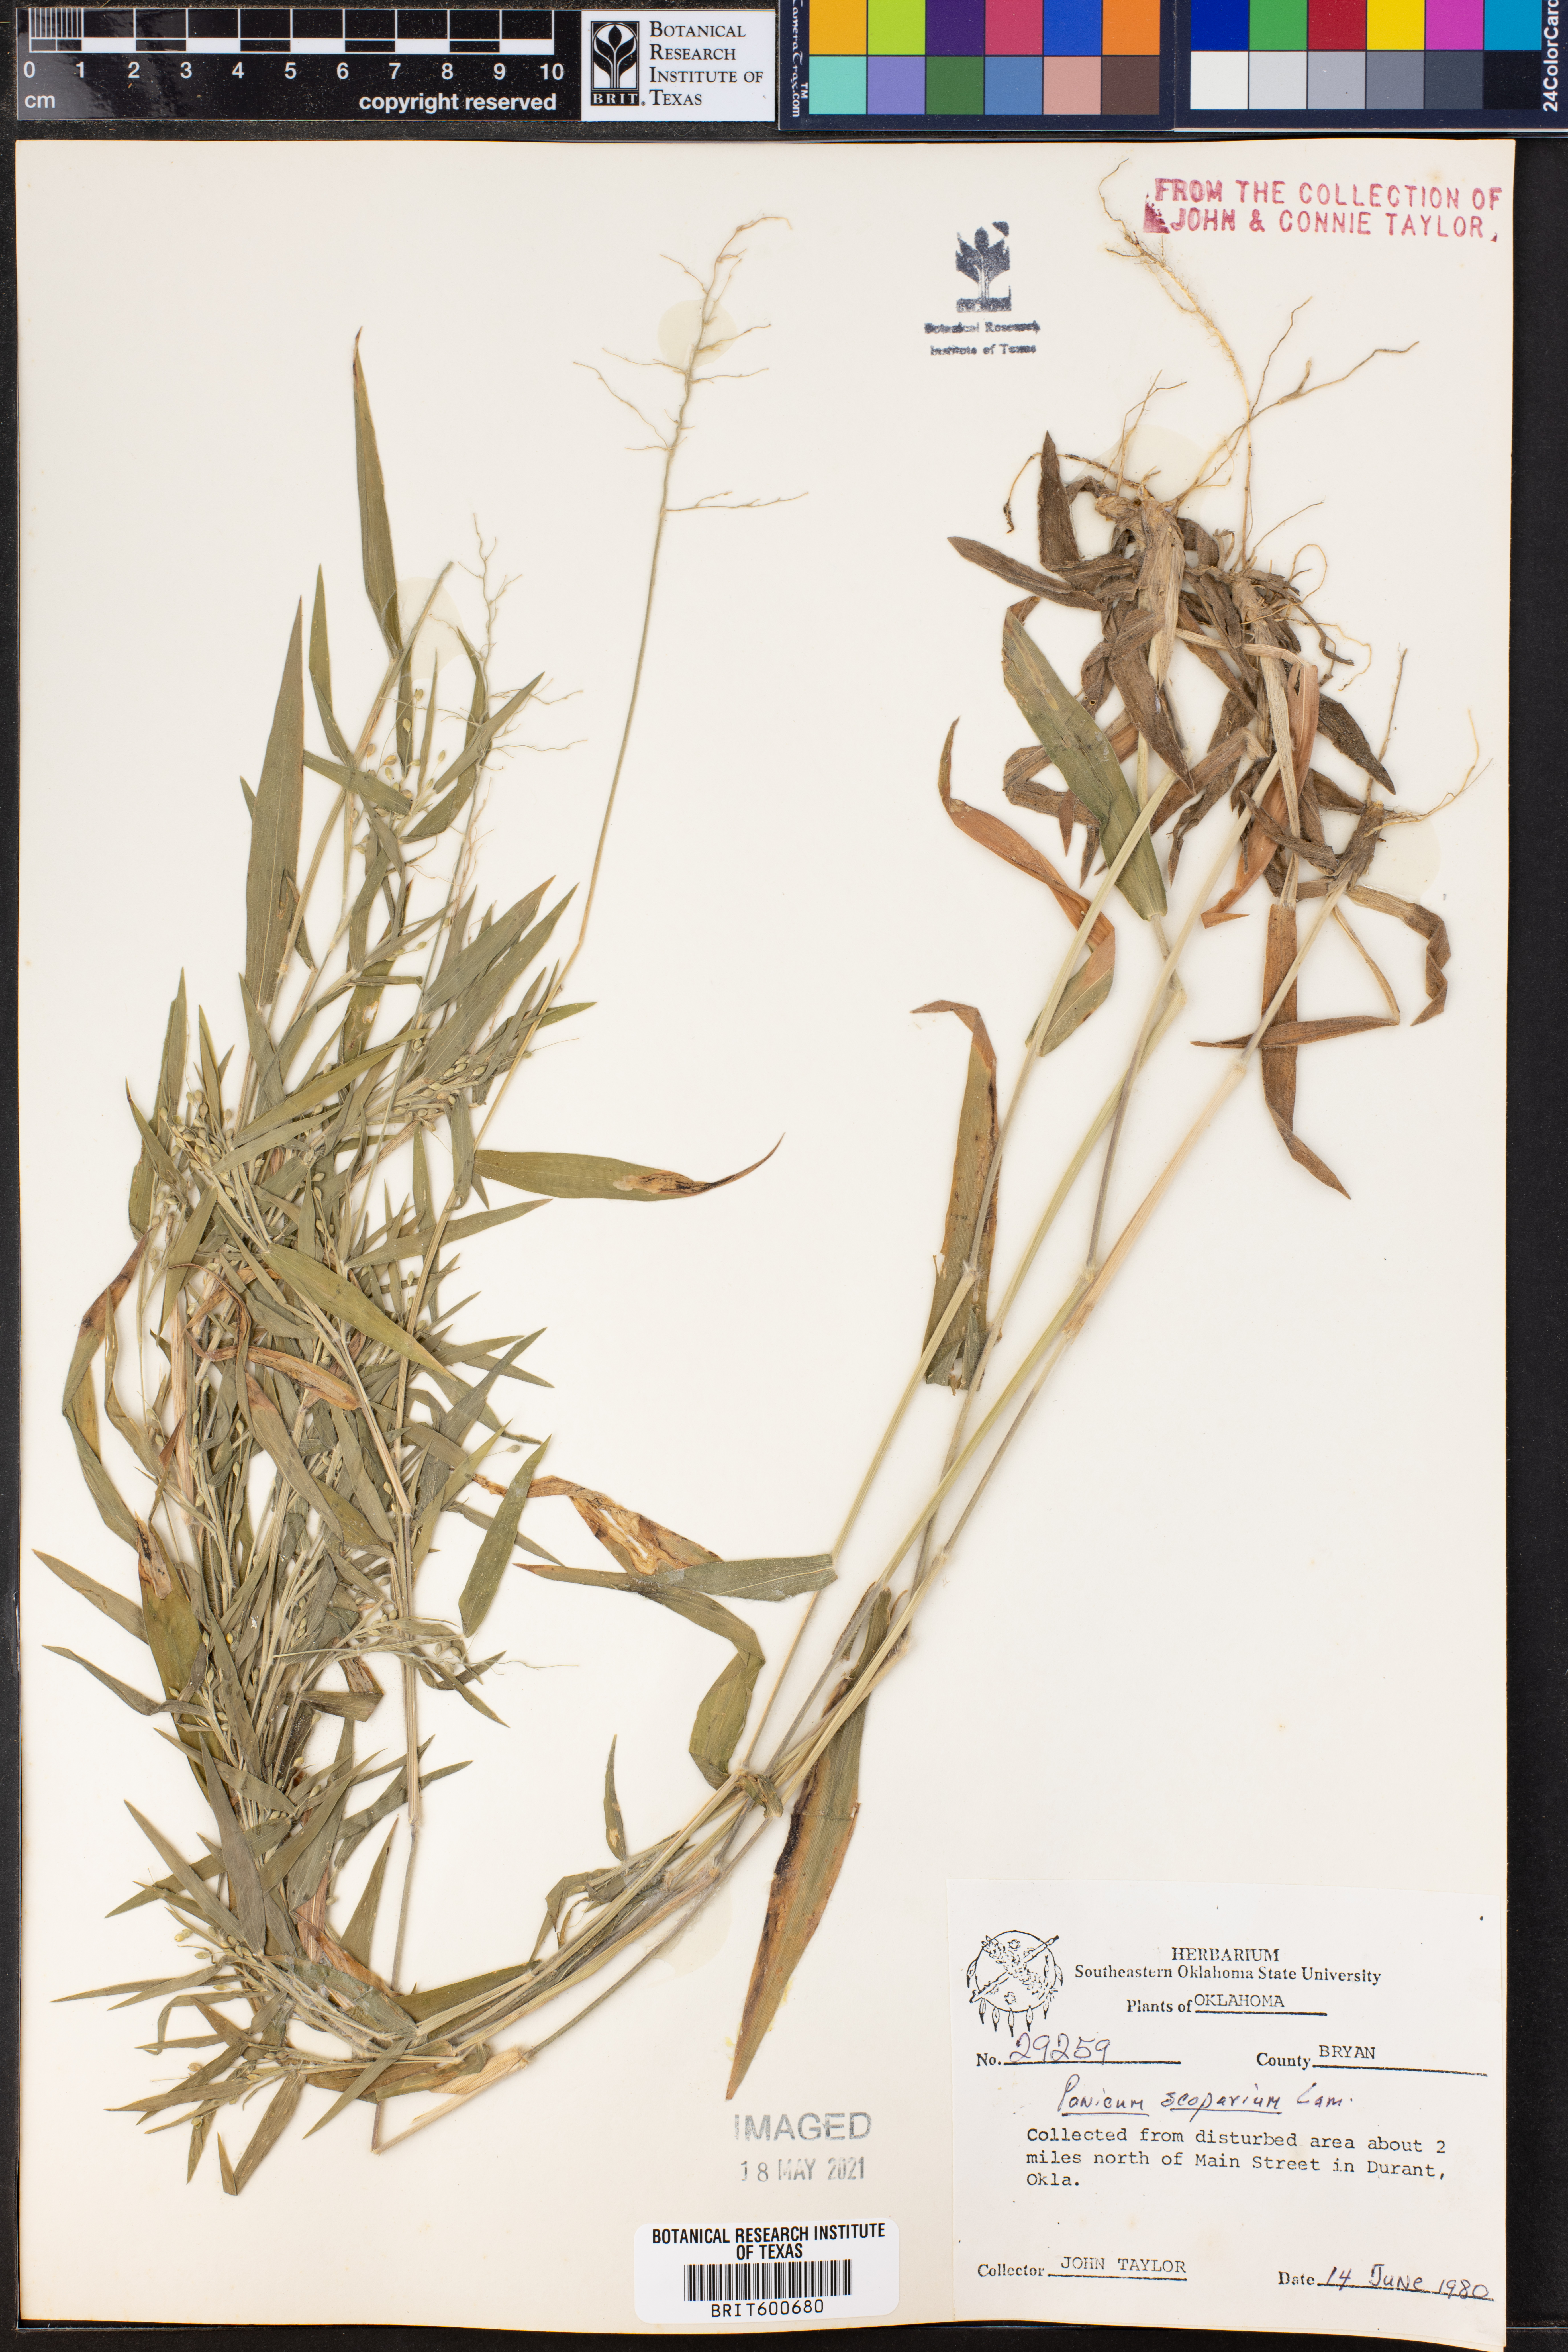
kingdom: Plantae
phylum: Tracheophyta
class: Liliopsida
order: Poales
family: Poaceae
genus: Dichanthelium
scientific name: Dichanthelium scribnerianum
